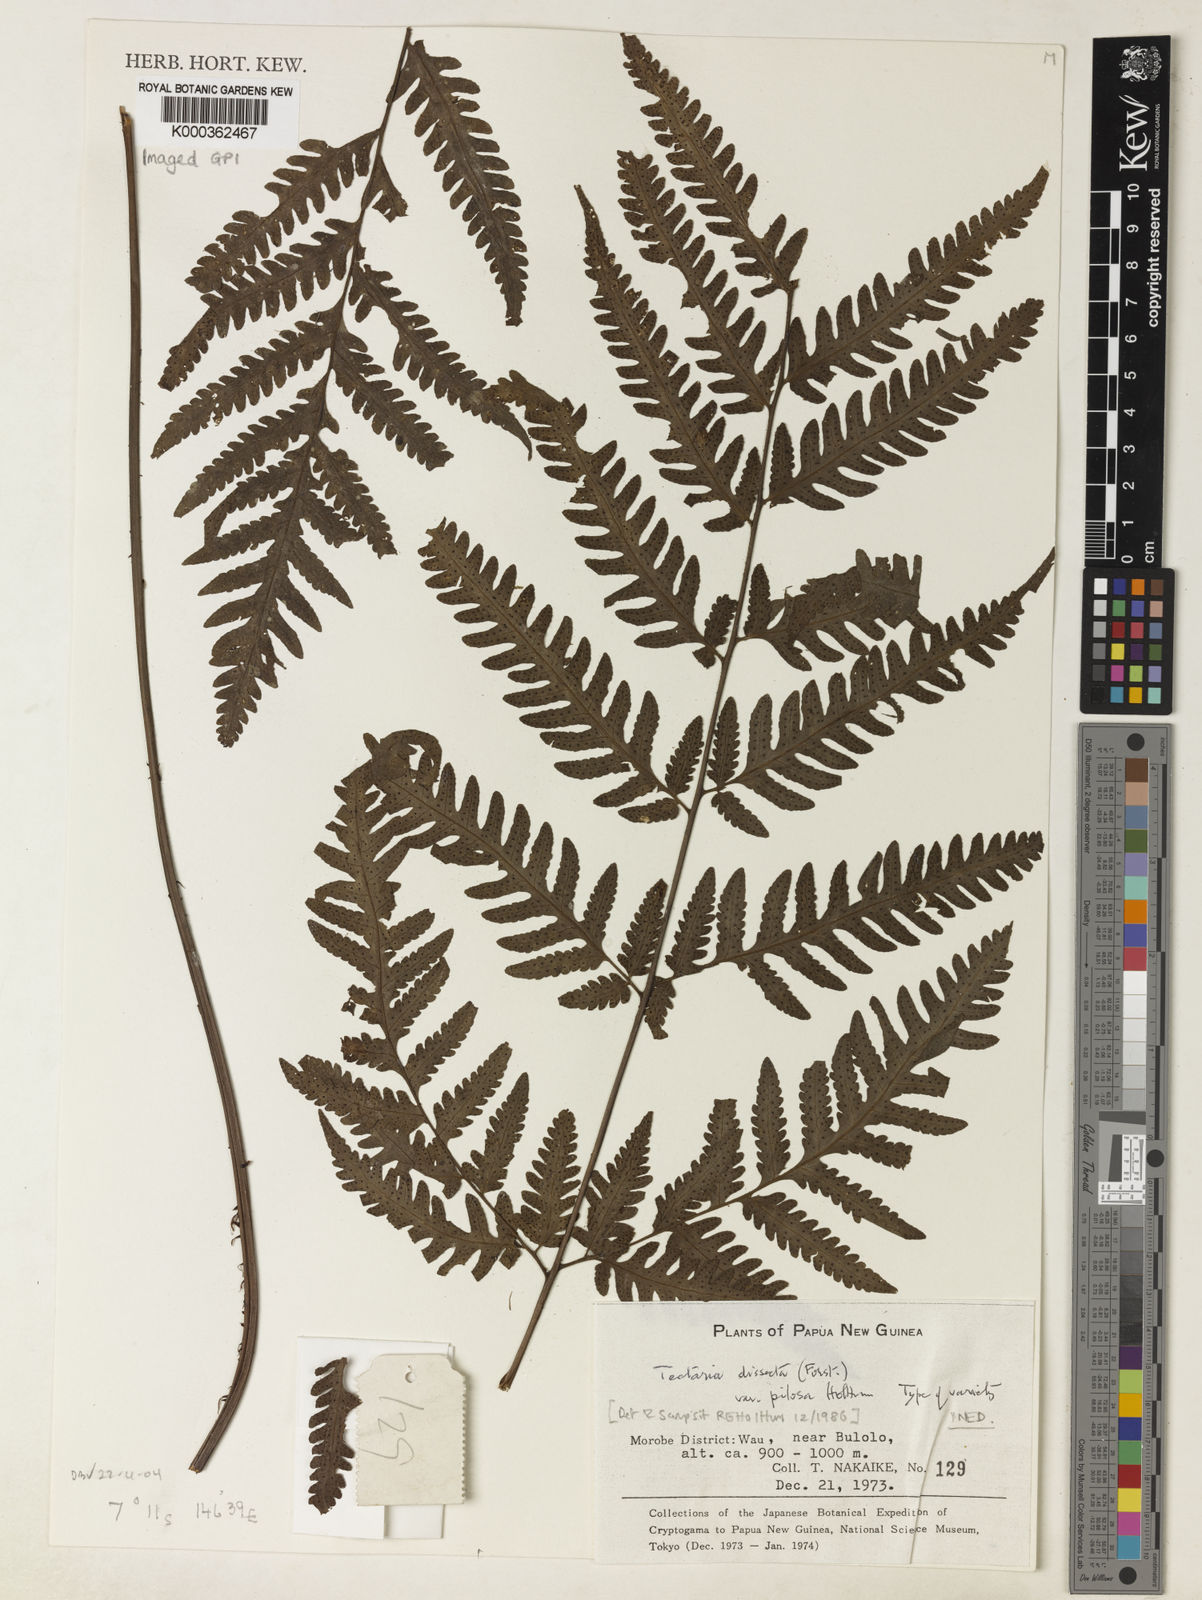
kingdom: Plantae
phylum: Tracheophyta
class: Polypodiopsida
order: Polypodiales
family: Tectariaceae
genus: Tectaria
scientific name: Tectaria dissecta
